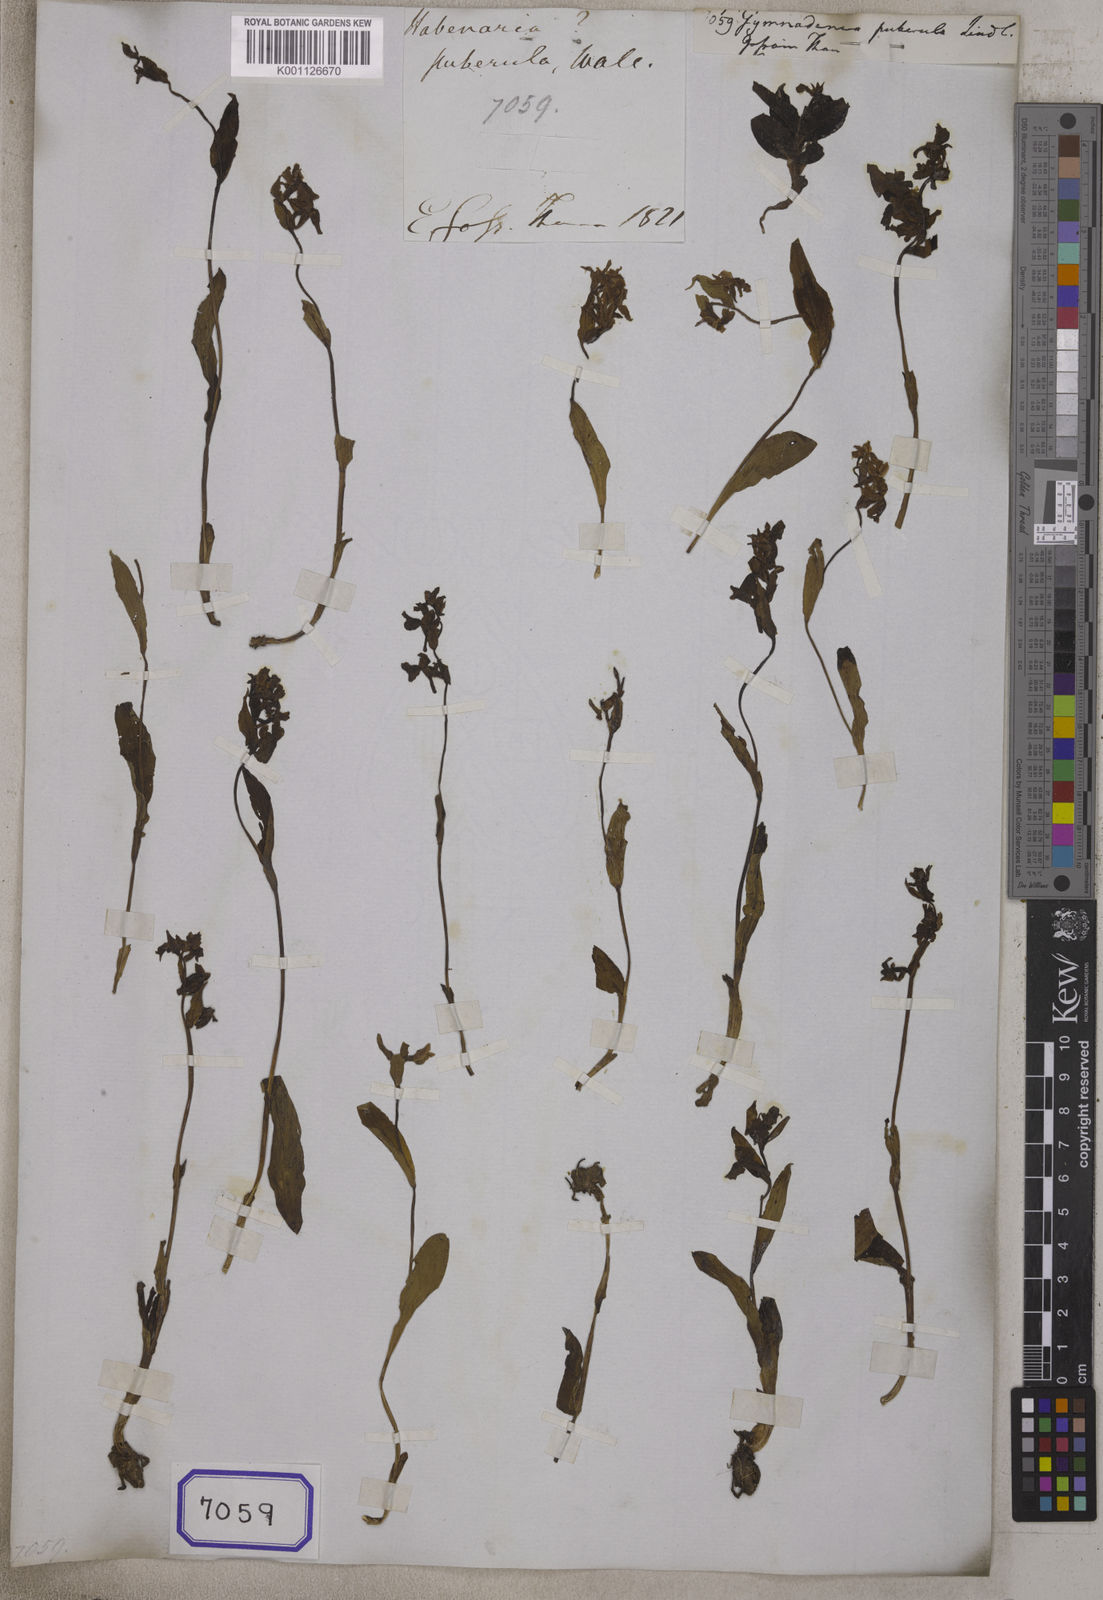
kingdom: Plantae
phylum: Tracheophyta
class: Liliopsida
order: Asparagales
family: Orchidaceae
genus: Gymnadenia
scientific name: Gymnadenia
